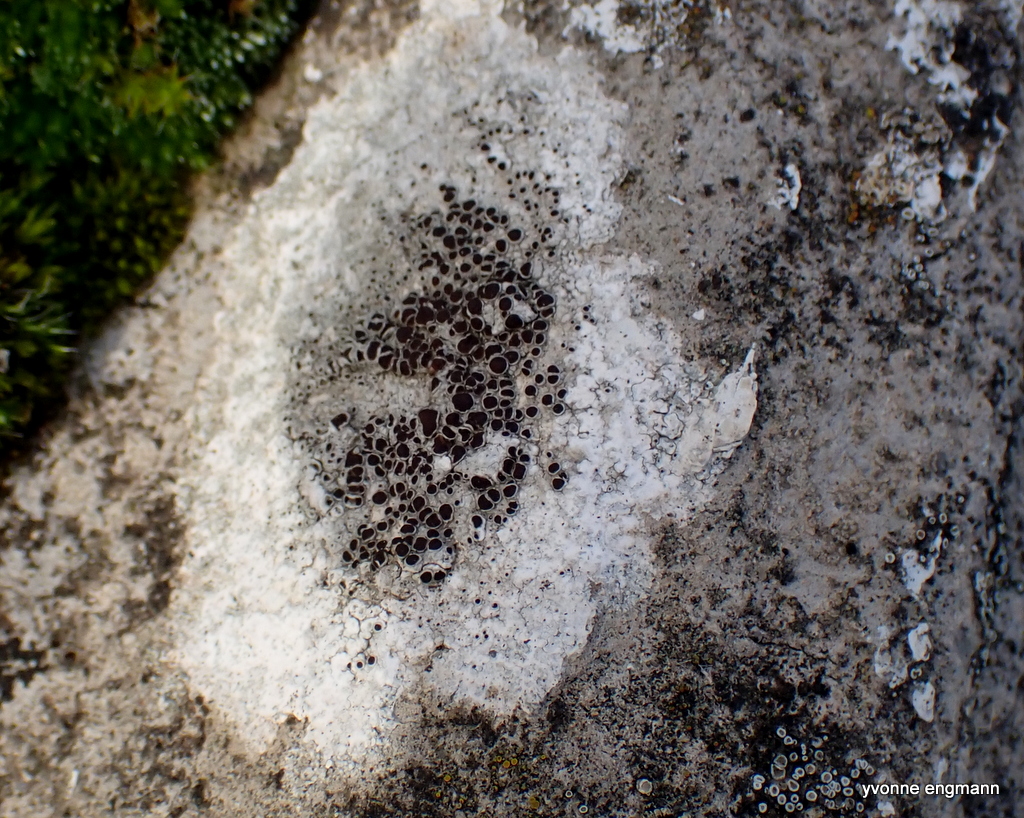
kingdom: Fungi
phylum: Ascomycota
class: Lecanoromycetes
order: Lecanorales
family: Lecanoraceae
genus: Lecanora
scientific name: Lecanora campestris
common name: mur-kantskivelav
